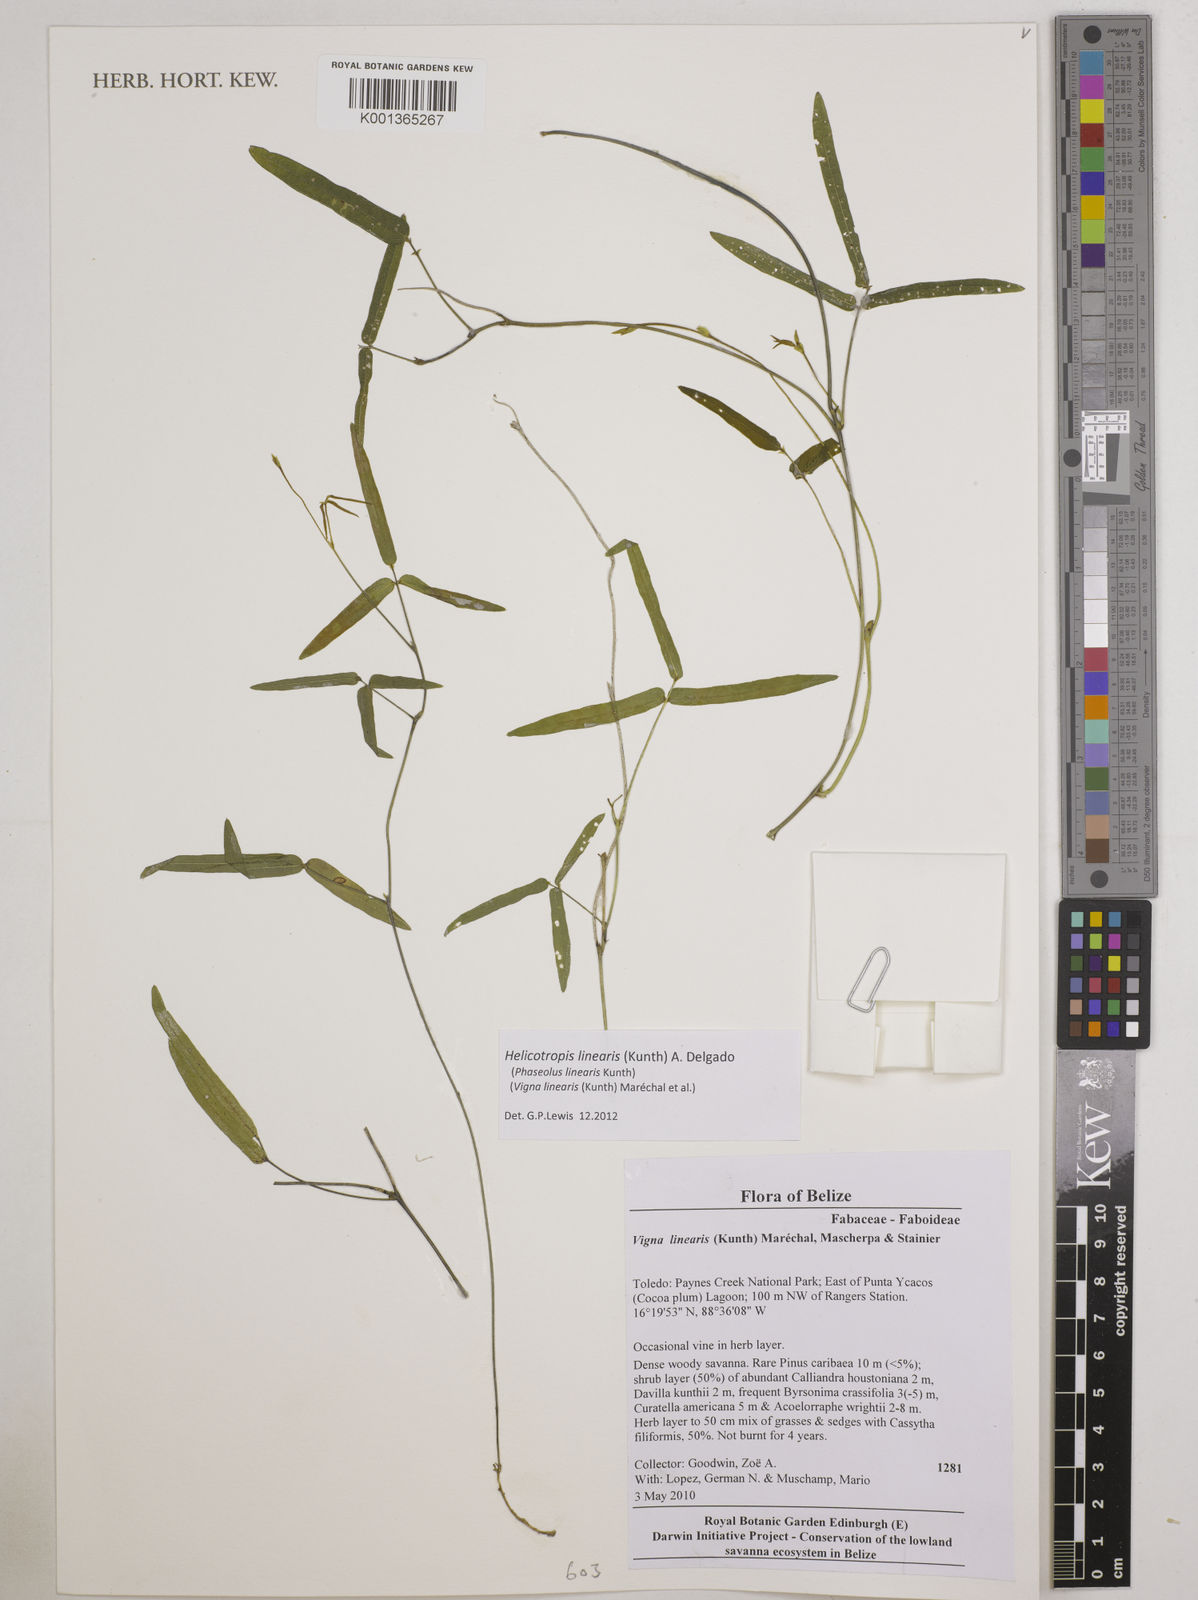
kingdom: Plantae
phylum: Tracheophyta
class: Magnoliopsida
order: Fabales
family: Fabaceae
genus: Helicotropis
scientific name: Helicotropis linearis
